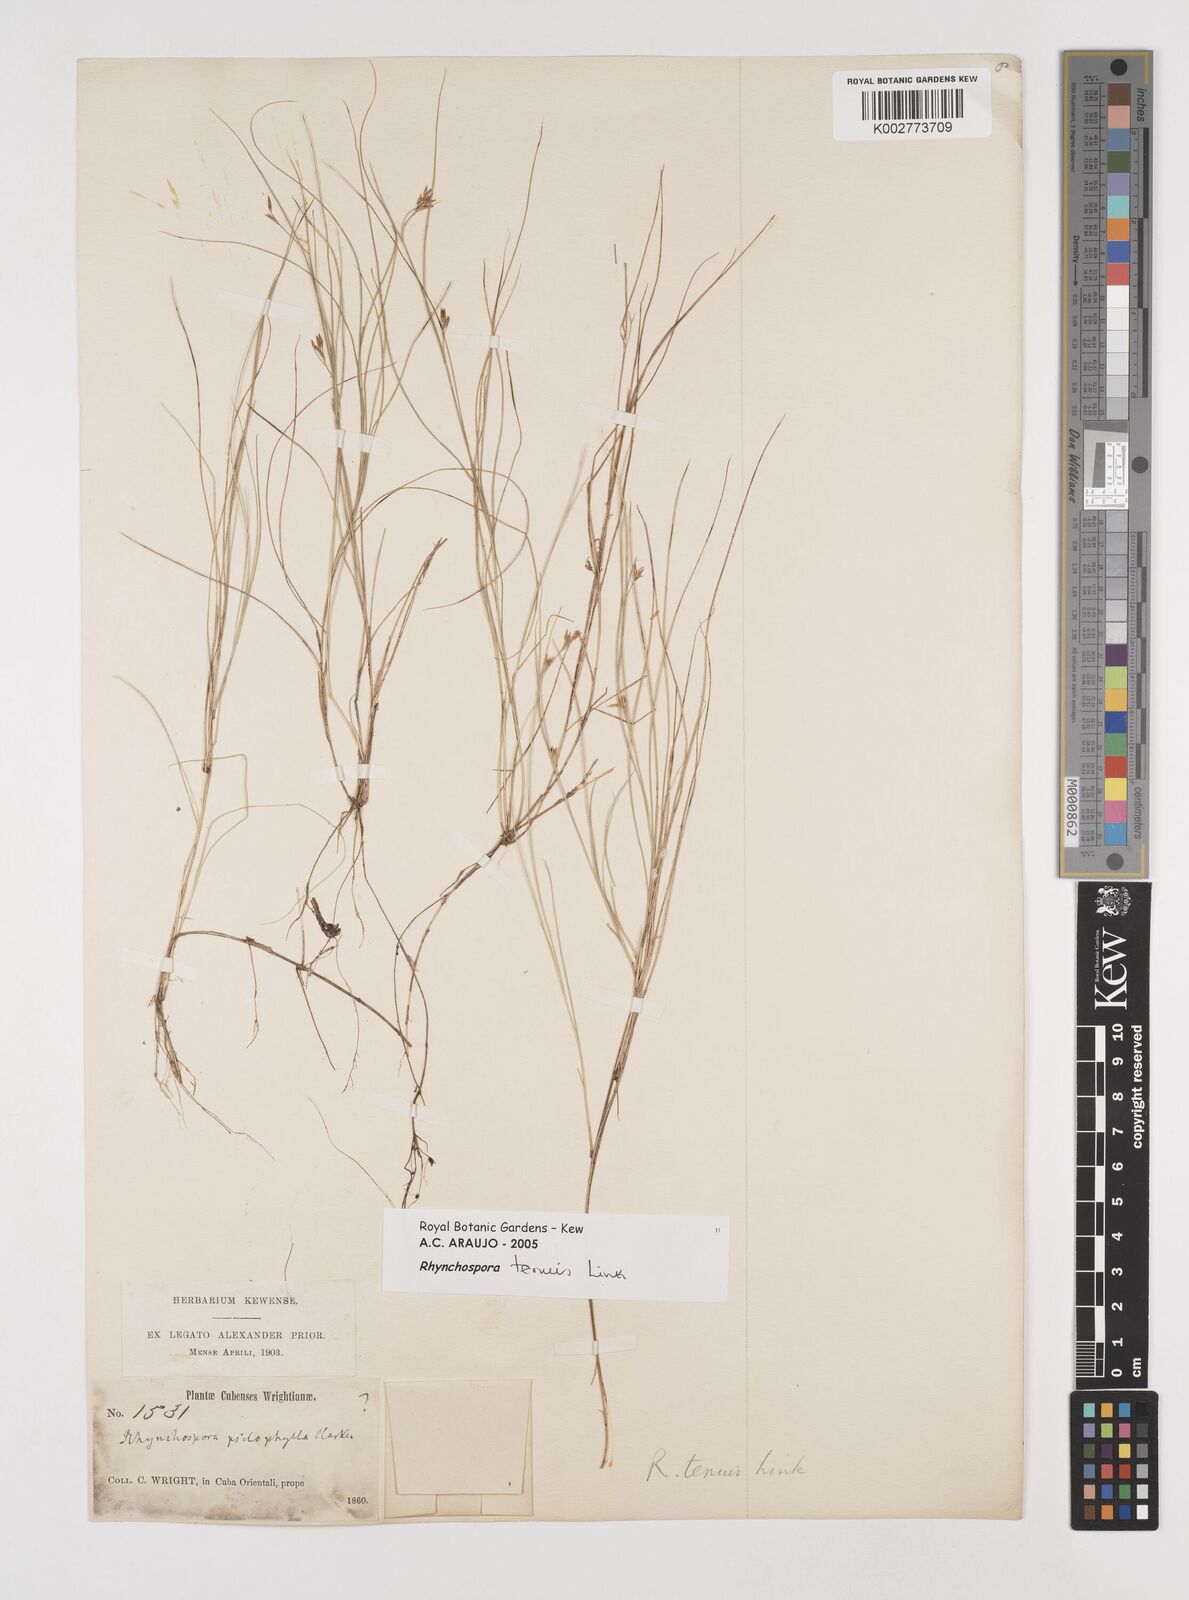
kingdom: Plantae
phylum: Tracheophyta
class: Liliopsida
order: Poales
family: Cyperaceae
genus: Rhynchospora
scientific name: Rhynchospora tenuis
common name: Quill beaksedge
